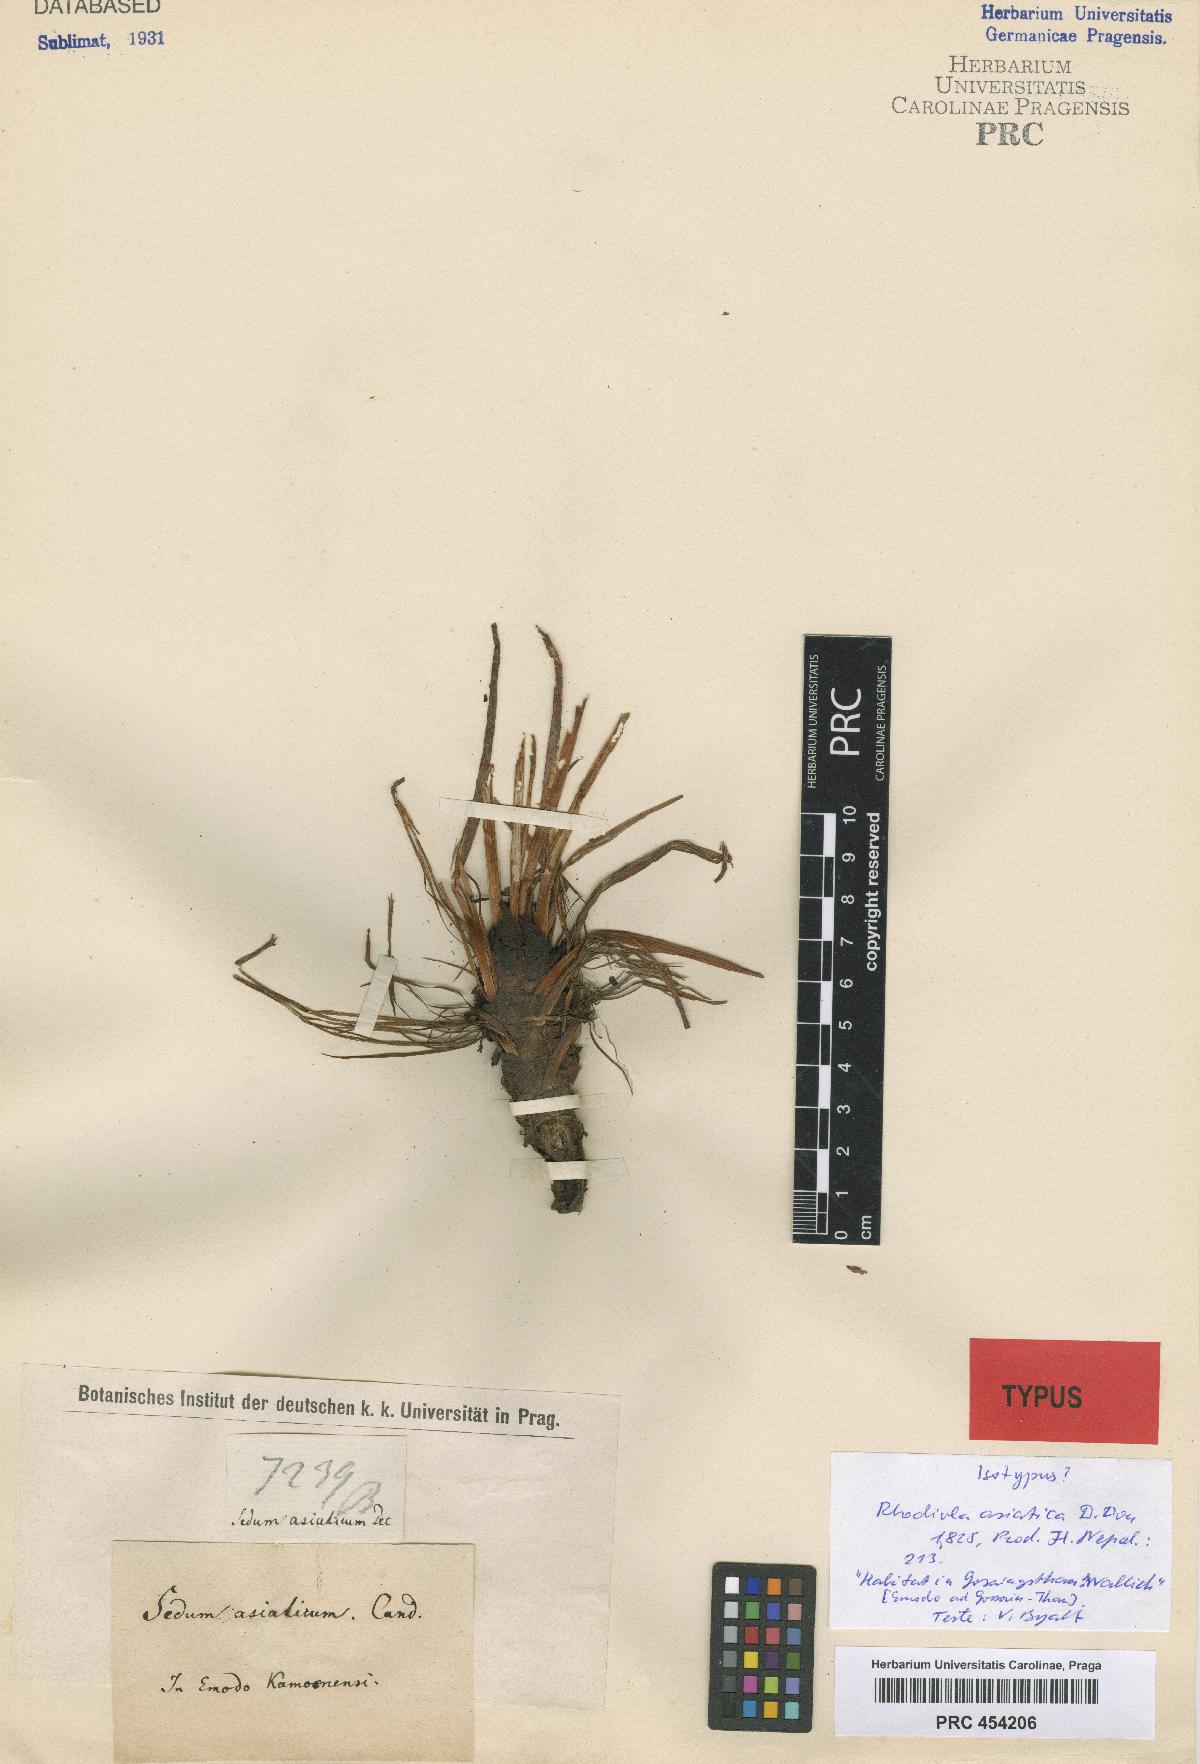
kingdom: Plantae
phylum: Tracheophyta
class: Magnoliopsida
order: Saxifragales
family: Crassulaceae
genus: Rhodiola
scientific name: Rhodiola coccinea
